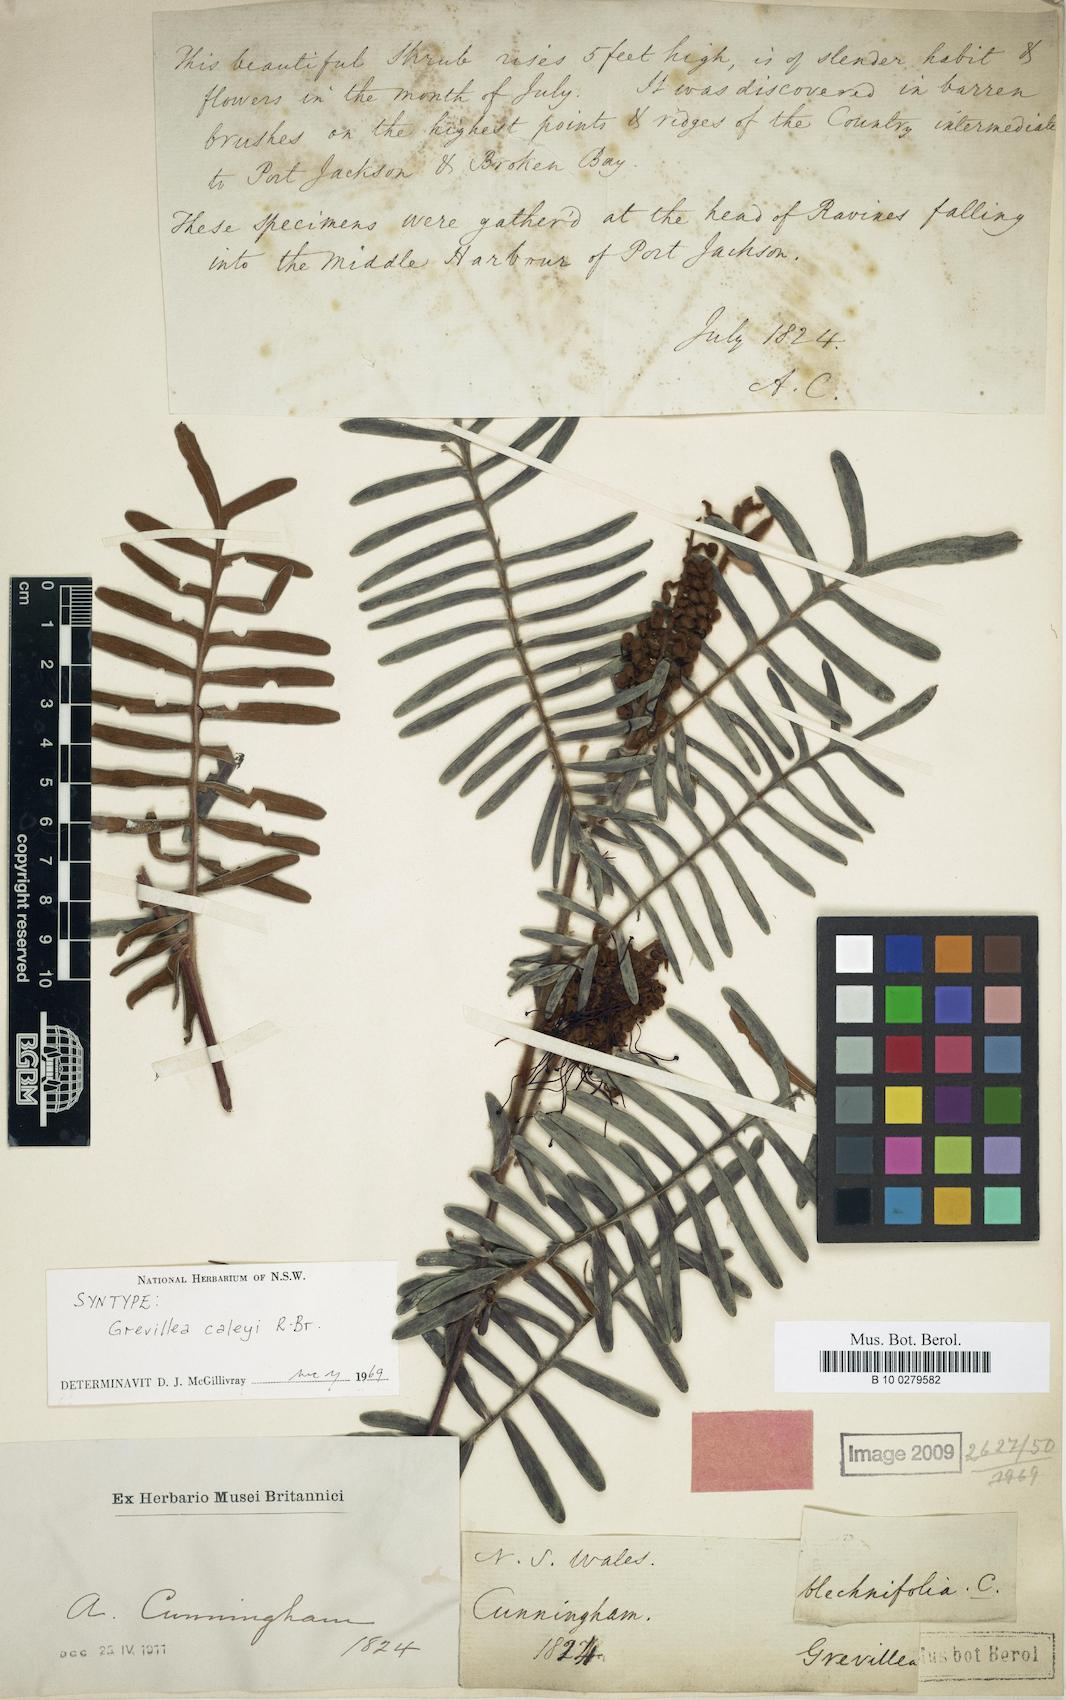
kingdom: Plantae
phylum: Tracheophyta
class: Magnoliopsida
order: Proteales
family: Proteaceae
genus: Grevillea
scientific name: Grevillea caleyi
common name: Caley's grevillea
